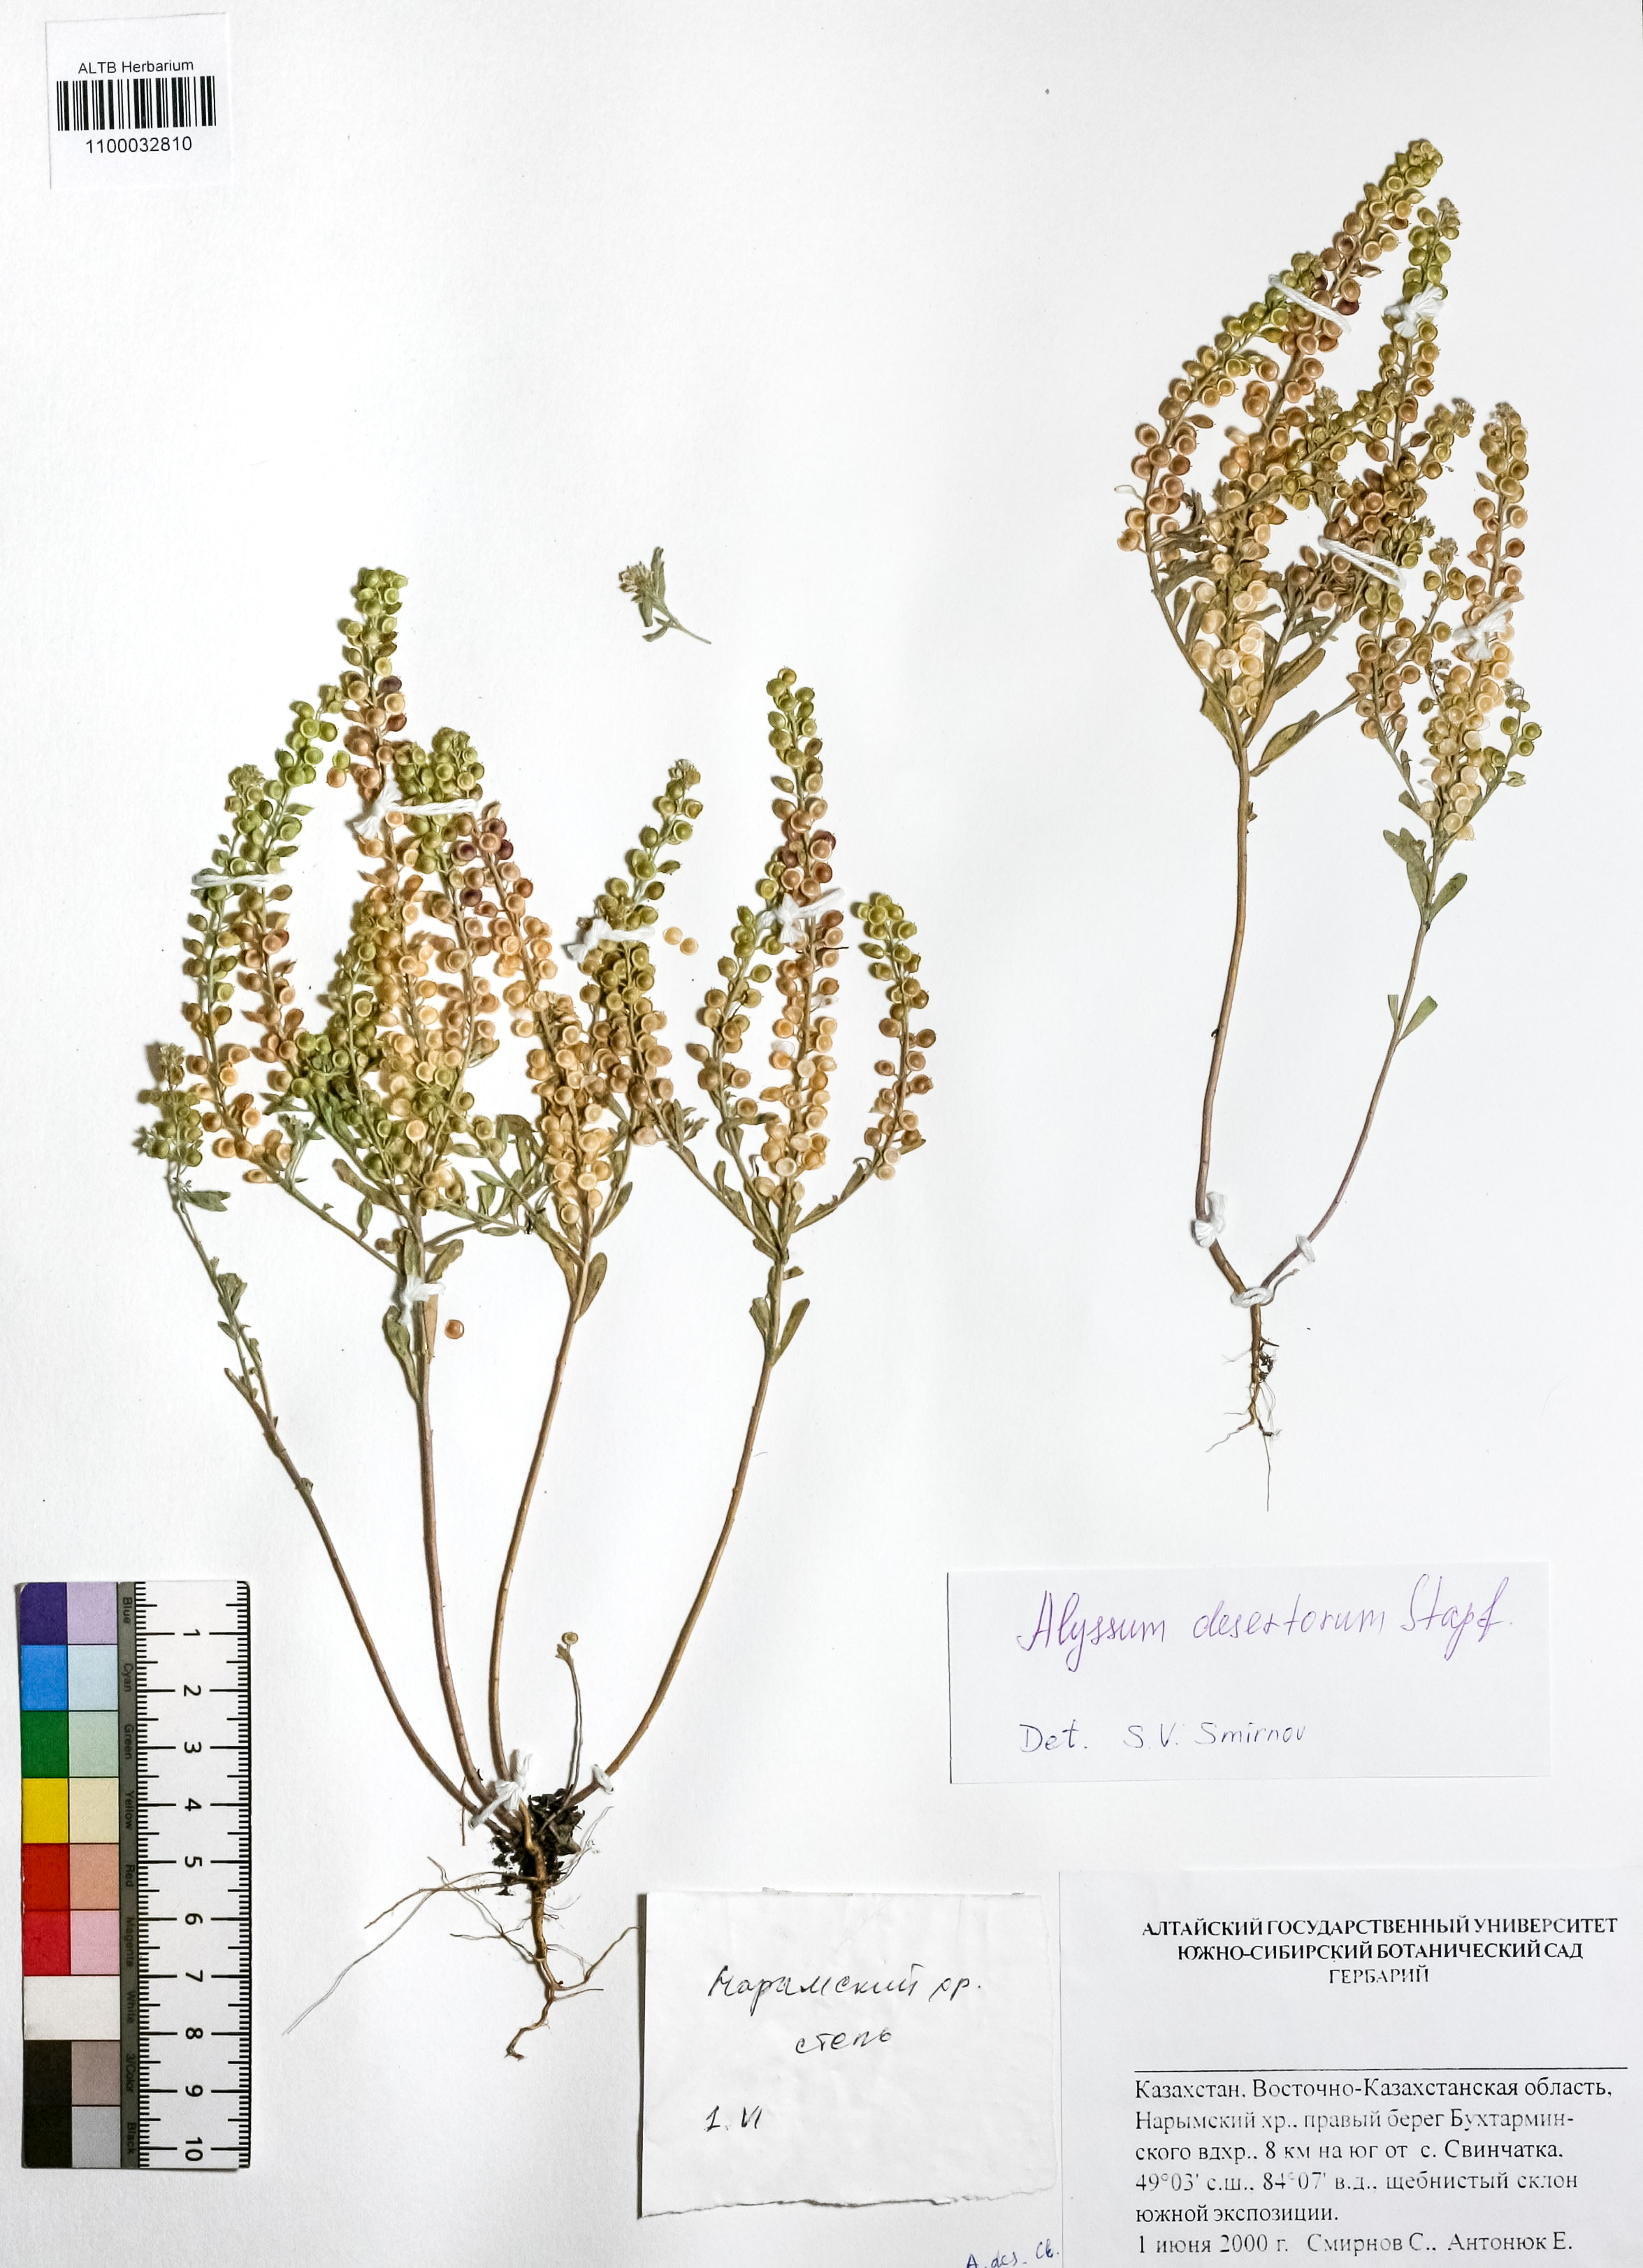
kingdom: Plantae
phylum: Tracheophyta
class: Magnoliopsida
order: Brassicales
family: Brassicaceae
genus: Alyssum
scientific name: Alyssum turkestanicum
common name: Desert alyssum
